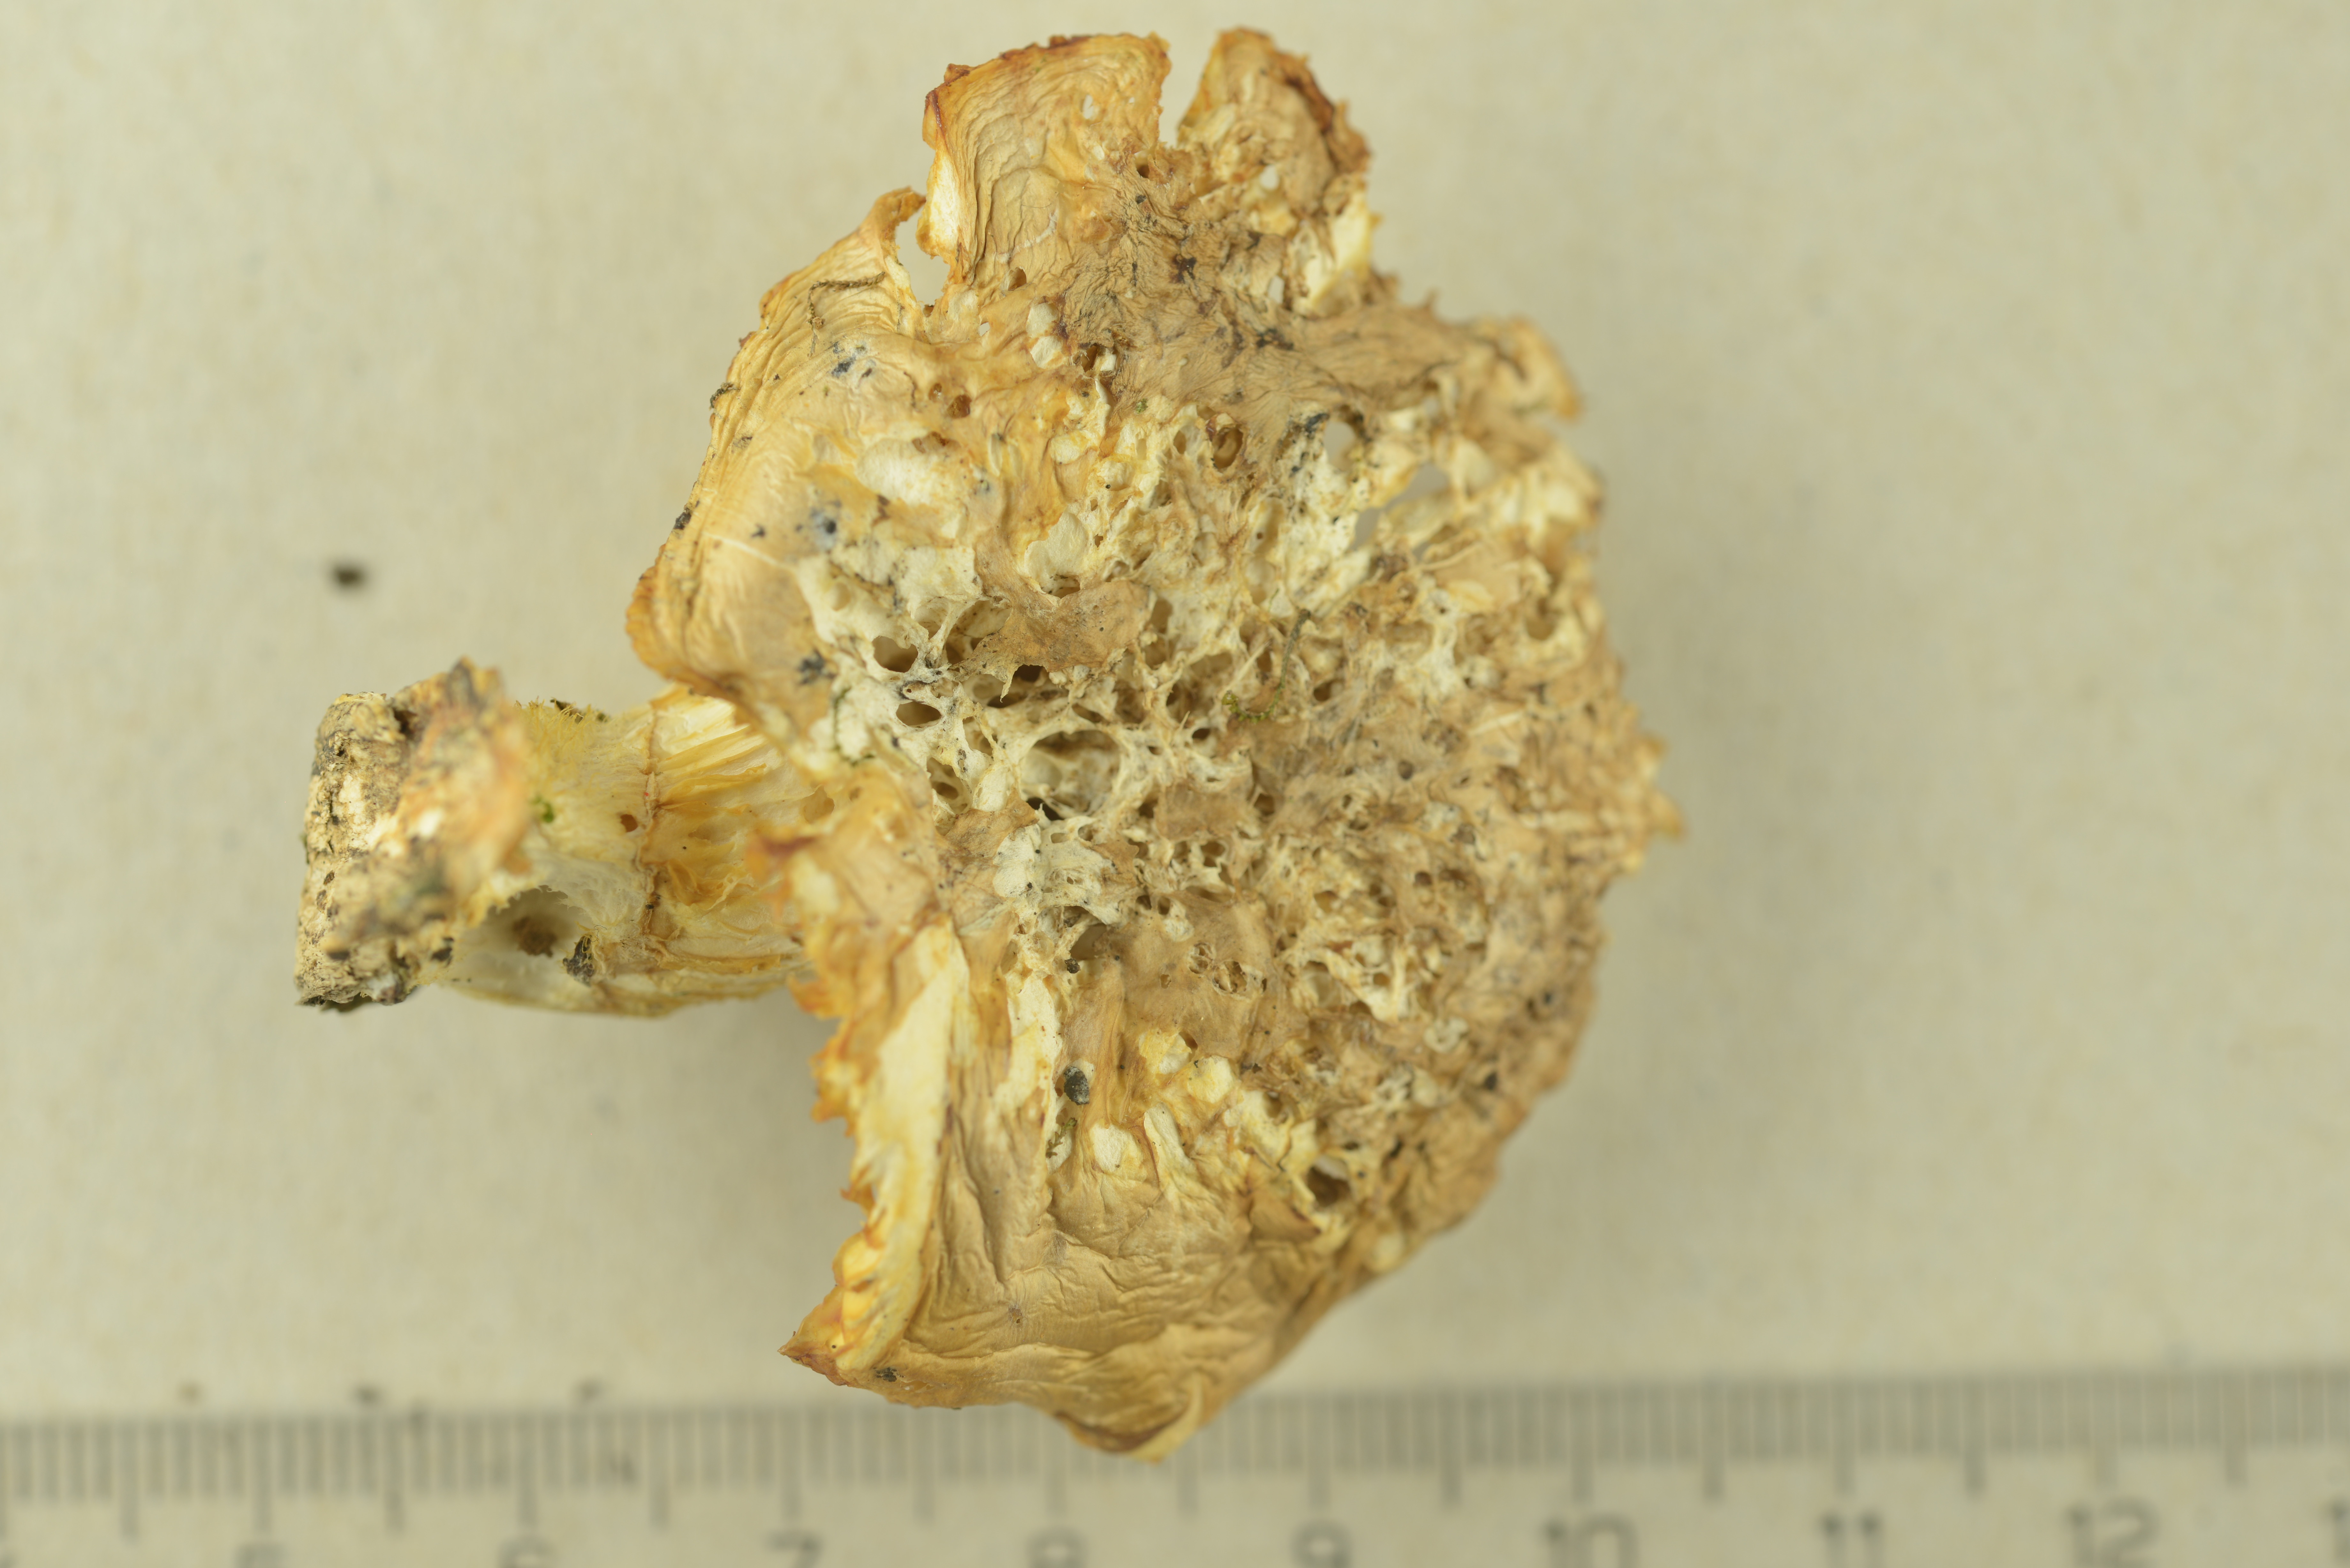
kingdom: Fungi
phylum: Basidiomycota
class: Agaricomycetes
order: Agaricales
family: Pleurotaceae
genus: Pleurotus
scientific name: Pleurotus cornucopiae
